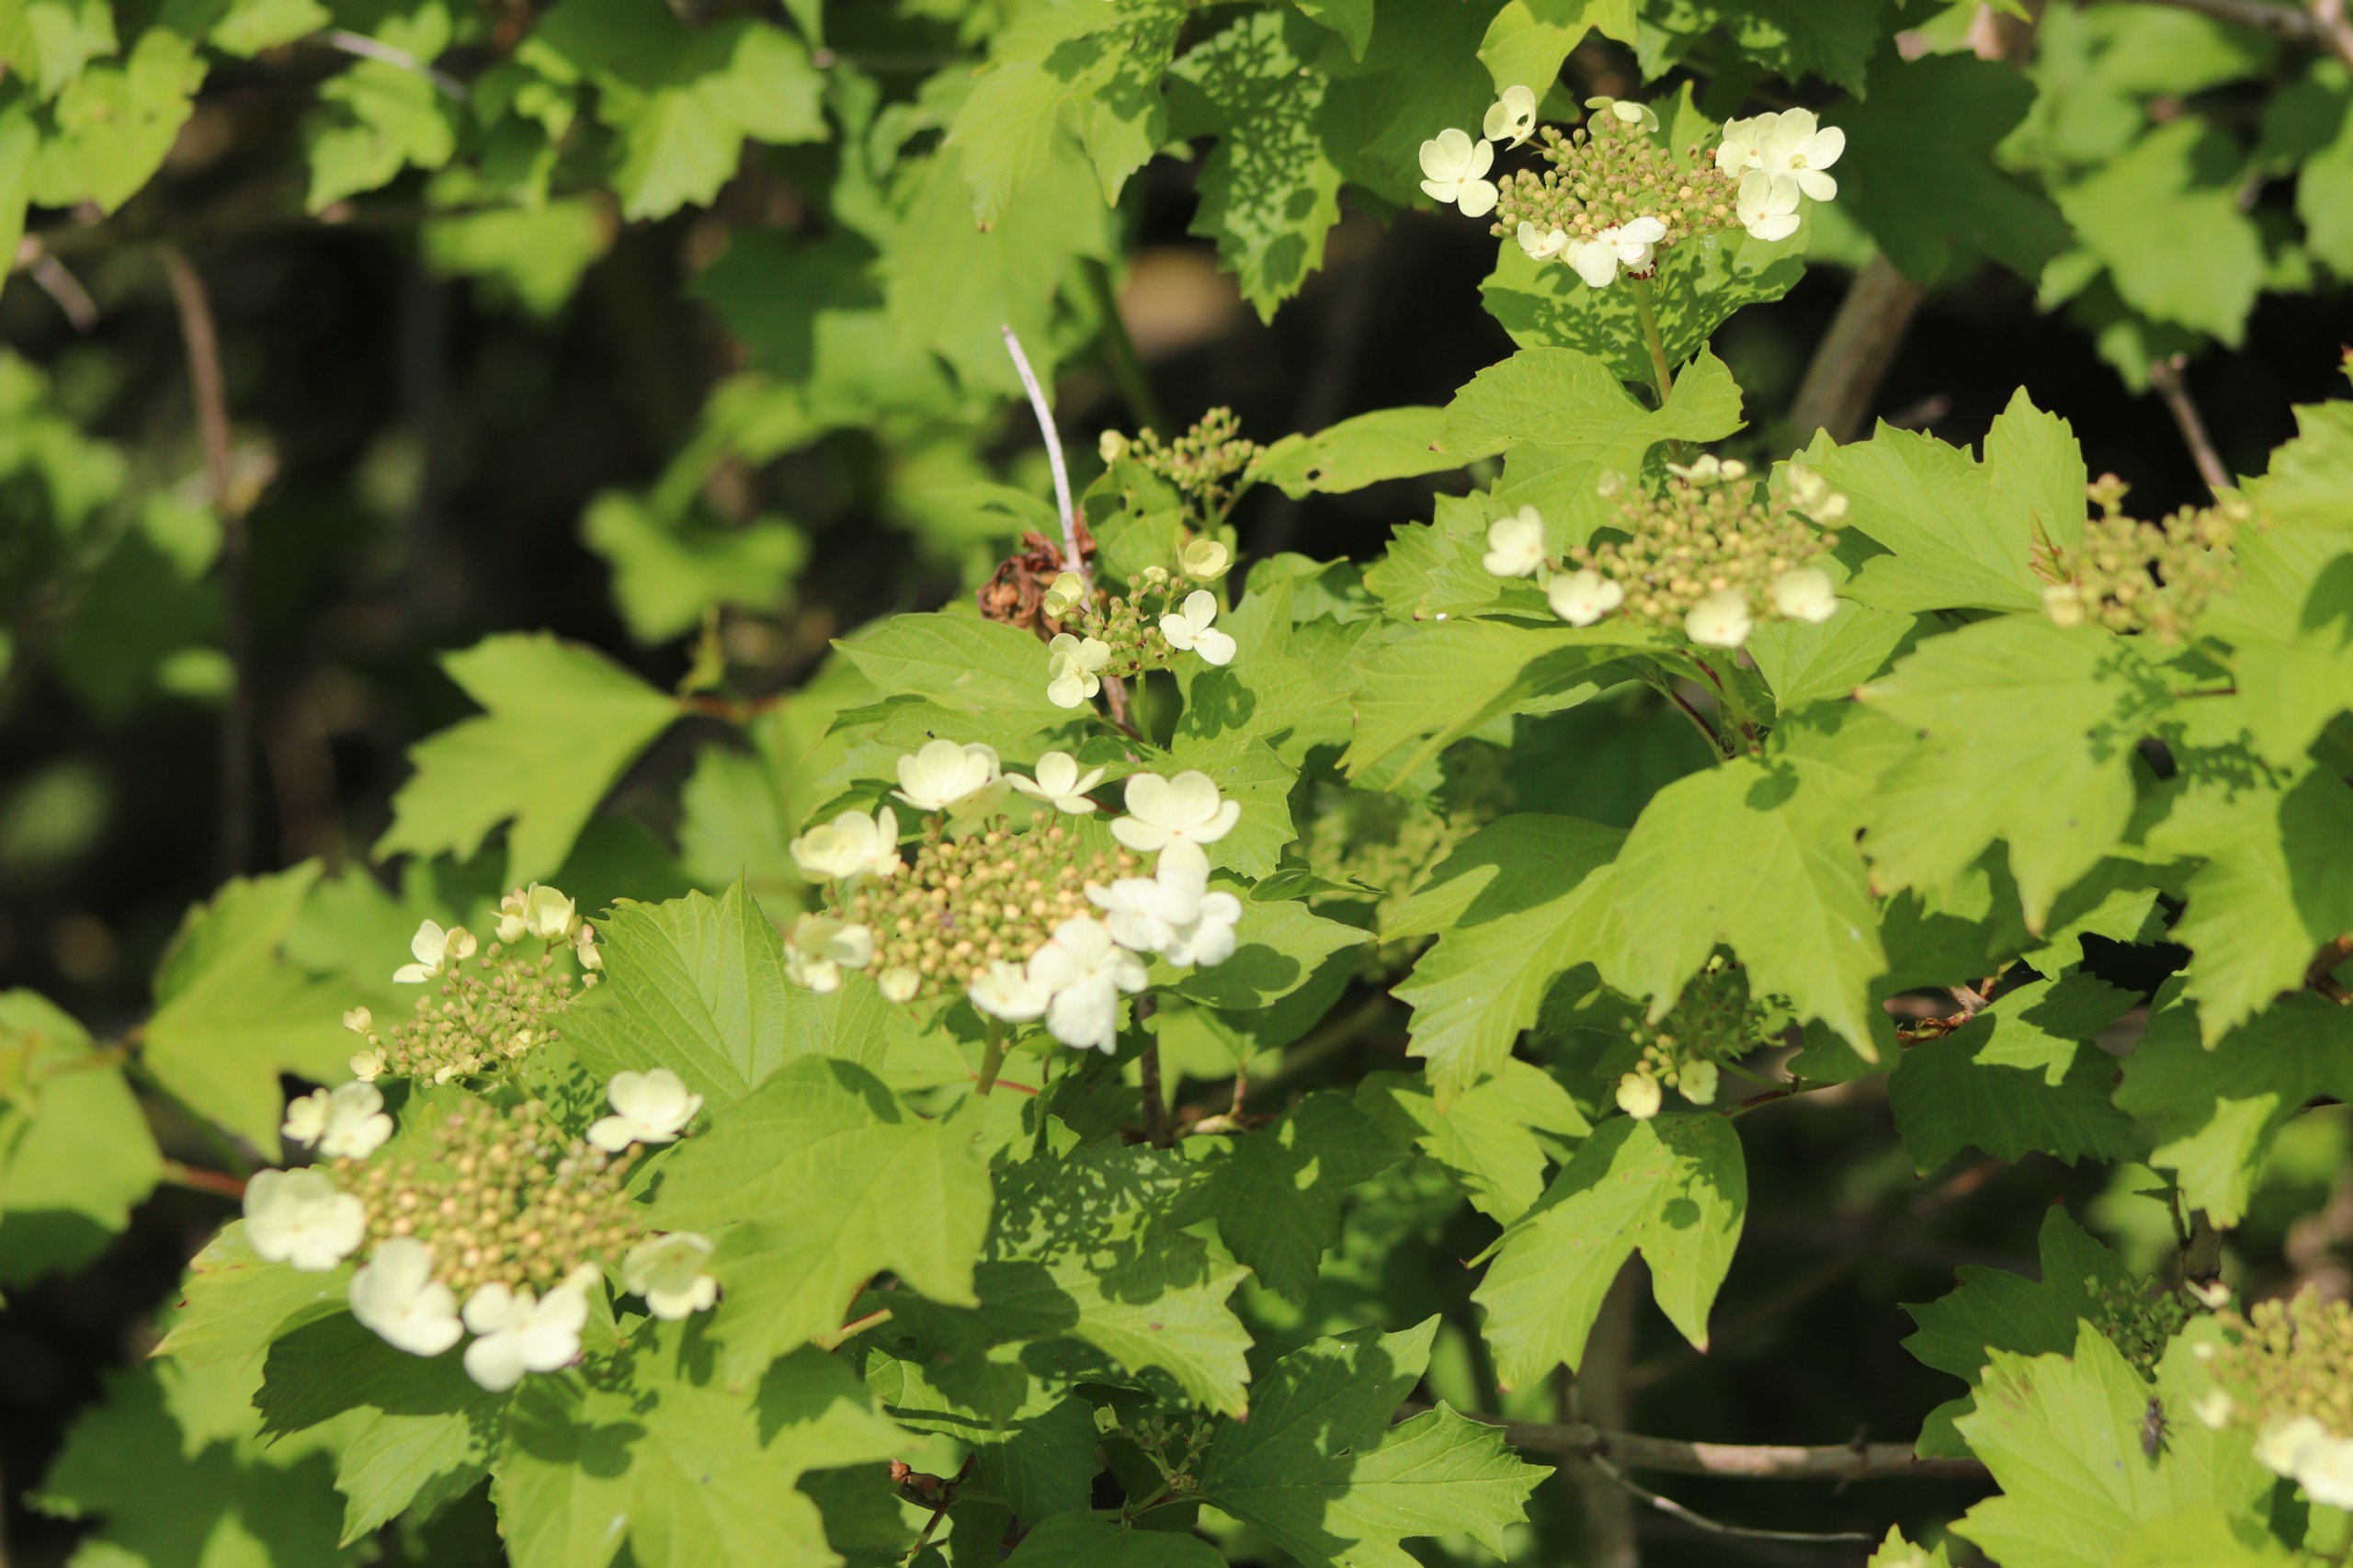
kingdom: Plantae
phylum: Tracheophyta
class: Magnoliopsida
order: Dipsacales
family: Viburnaceae
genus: Viburnum
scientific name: Viburnum opulus
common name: Kvalkved
